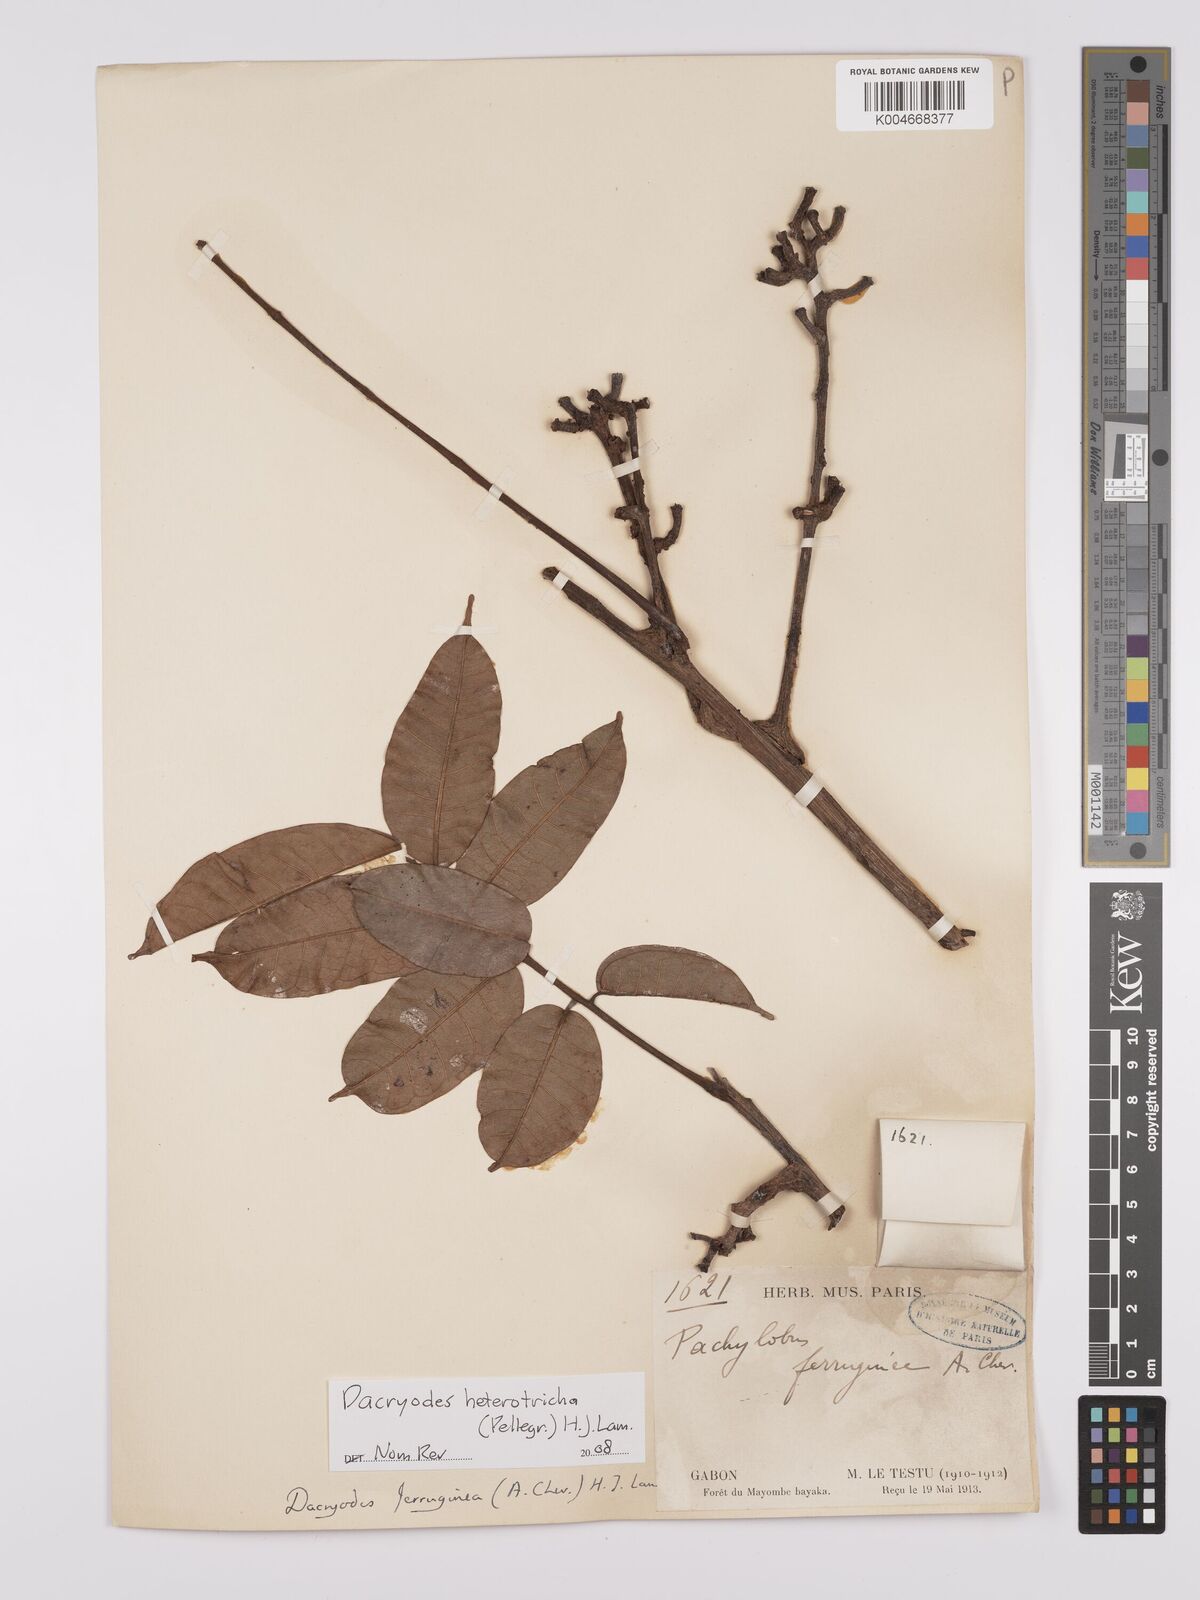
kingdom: Plantae
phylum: Tracheophyta
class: Magnoliopsida
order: Sapindales
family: Burseraceae
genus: Pachylobus
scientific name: Pachylobus heterotrichus
